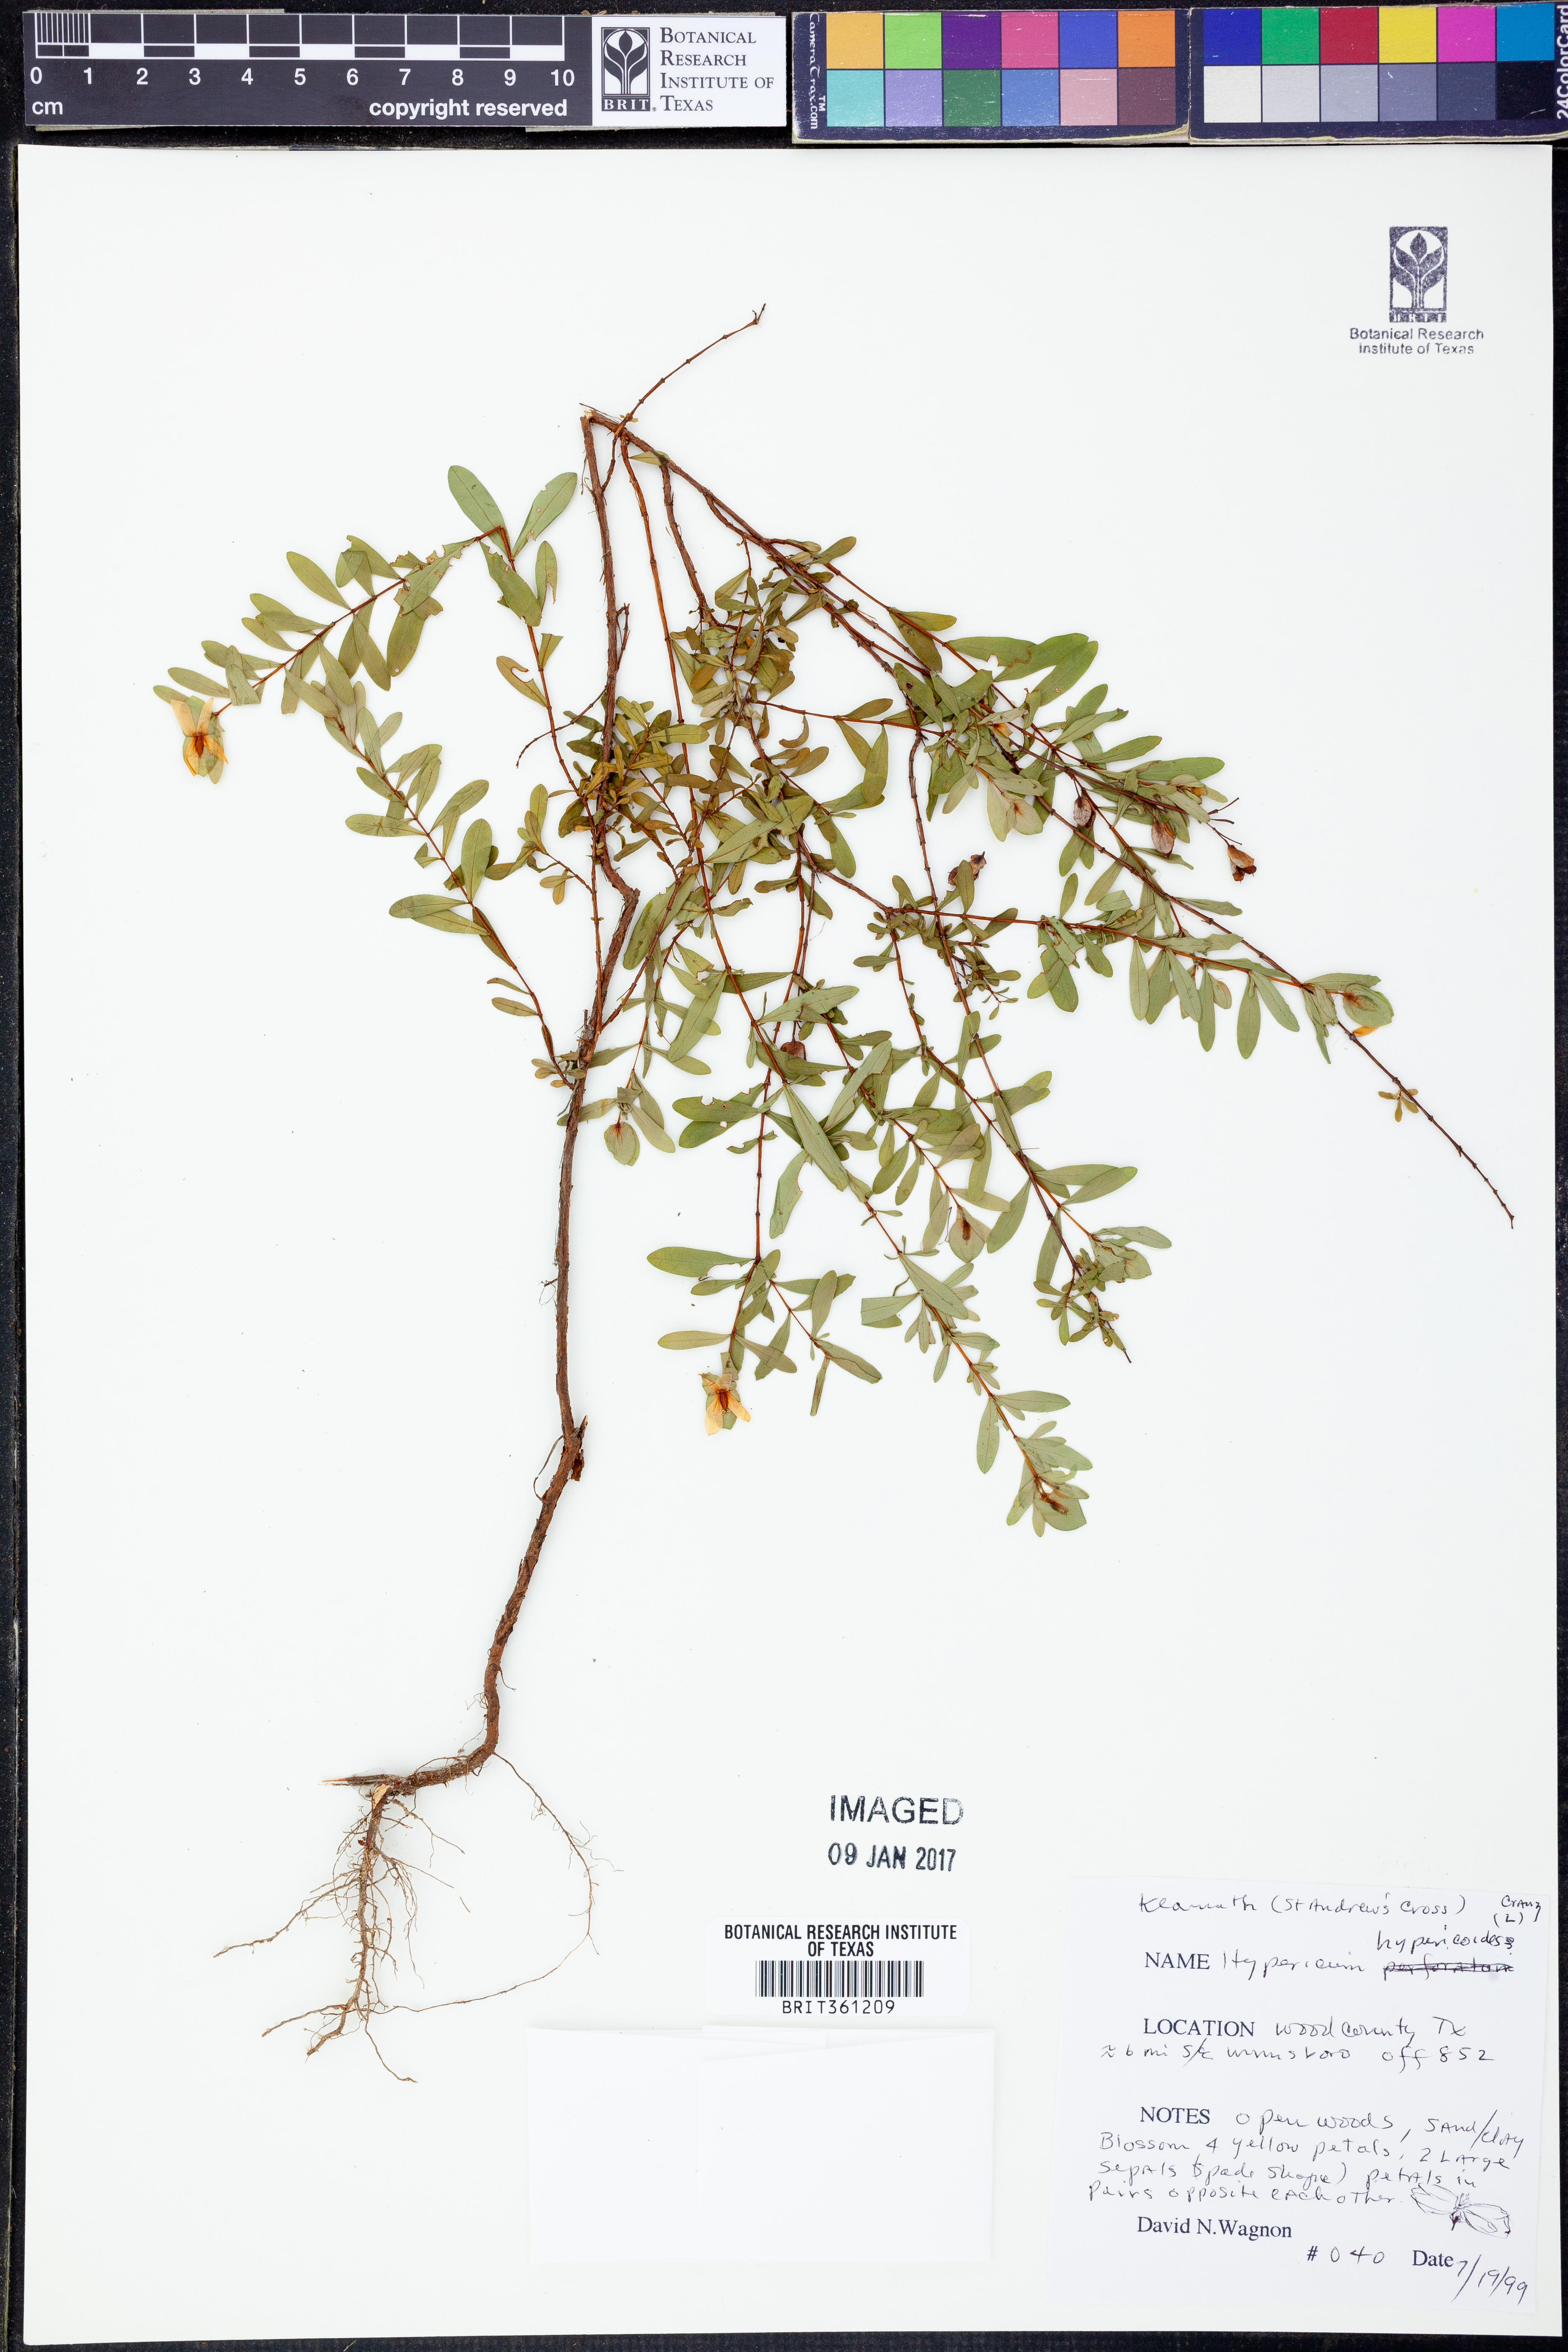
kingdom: Plantae
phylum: Tracheophyta
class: Magnoliopsida
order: Malpighiales
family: Hypericaceae
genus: Hypericum
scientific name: Hypericum hypericoides
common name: St. andrew's cross
